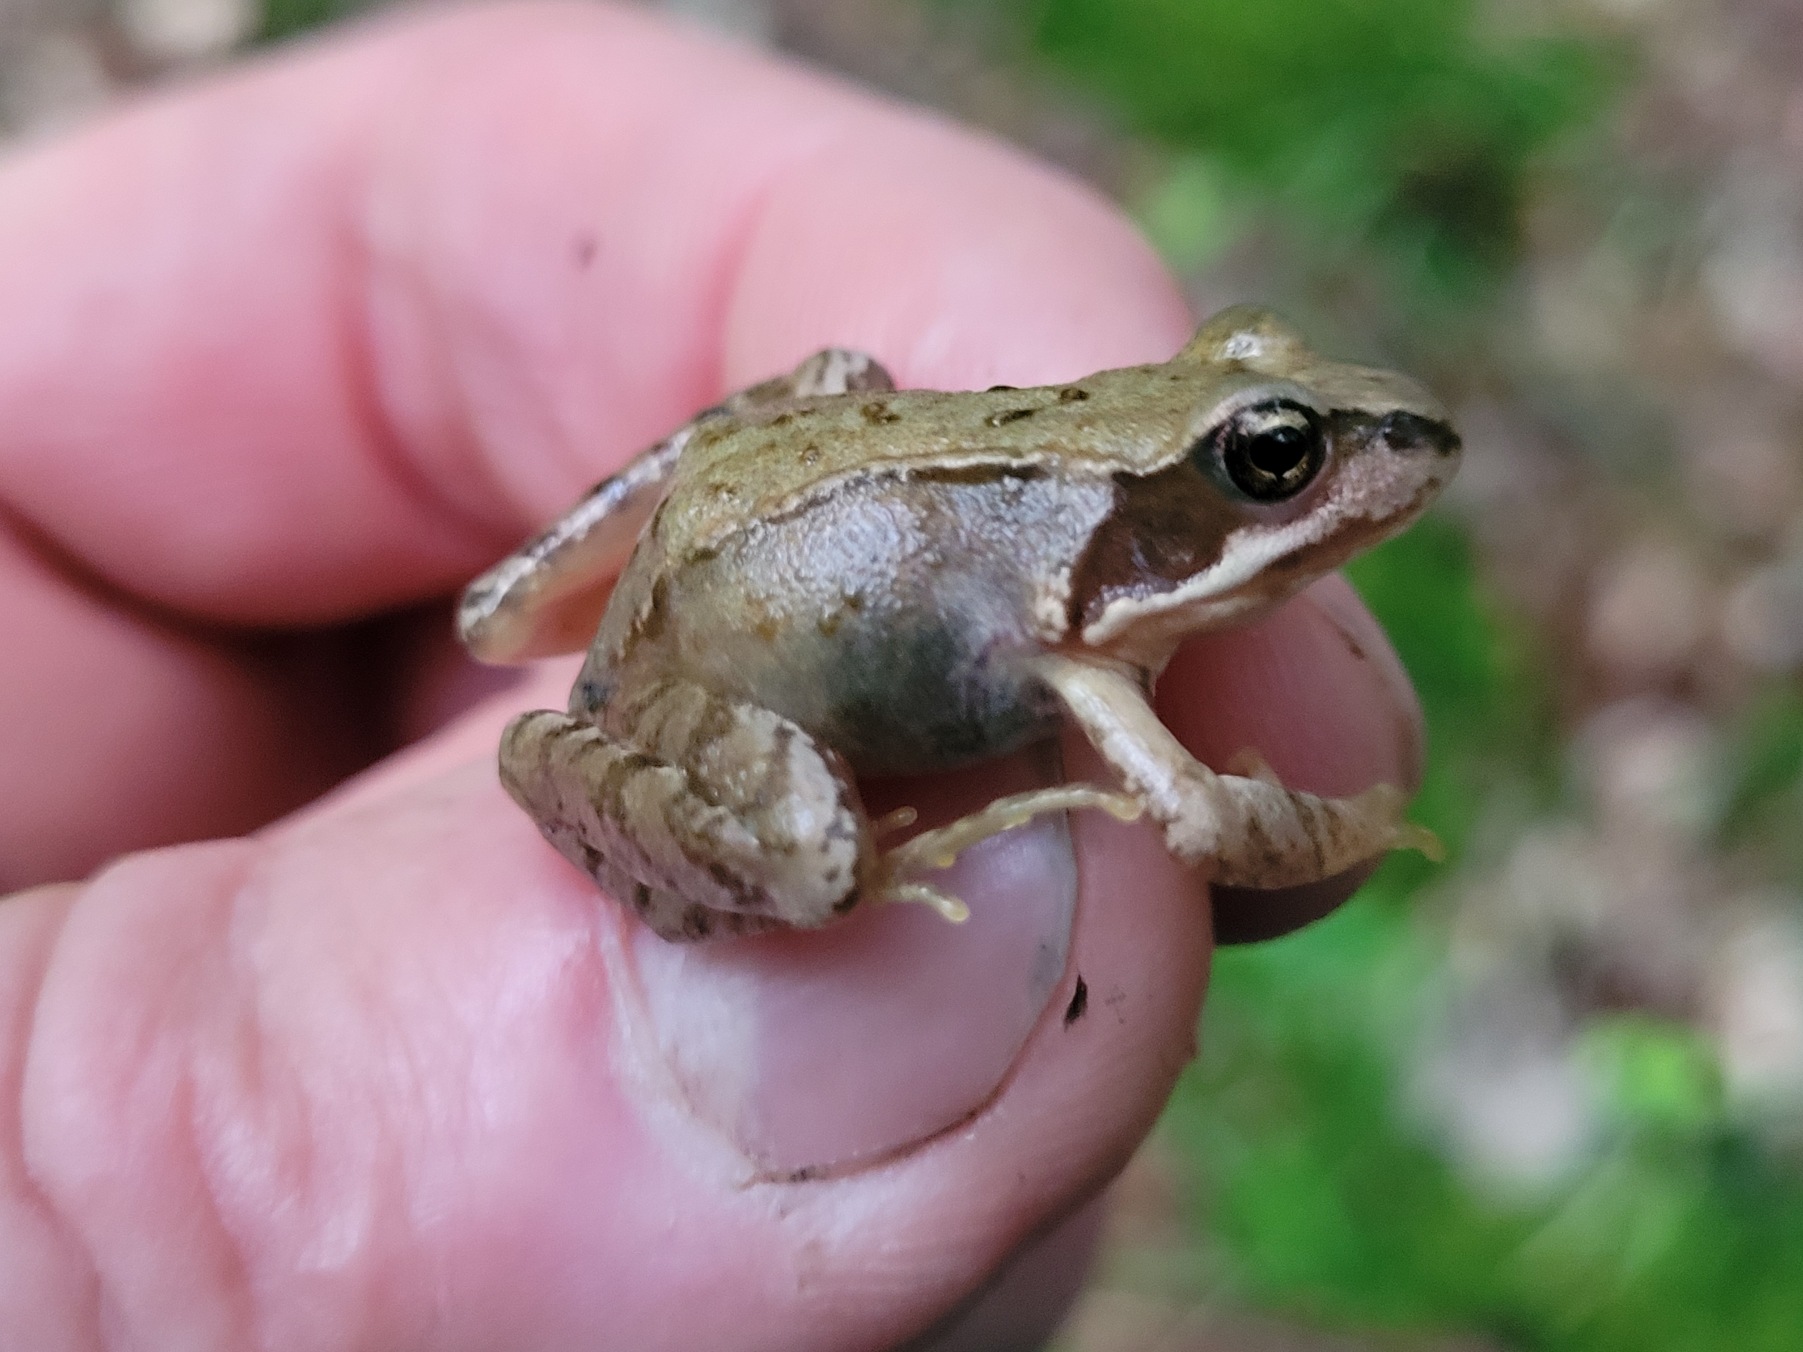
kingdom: Animalia
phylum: Chordata
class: Amphibia
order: Anura
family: Ranidae
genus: Rana
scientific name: Rana temporaria
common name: Butsnudet frø
